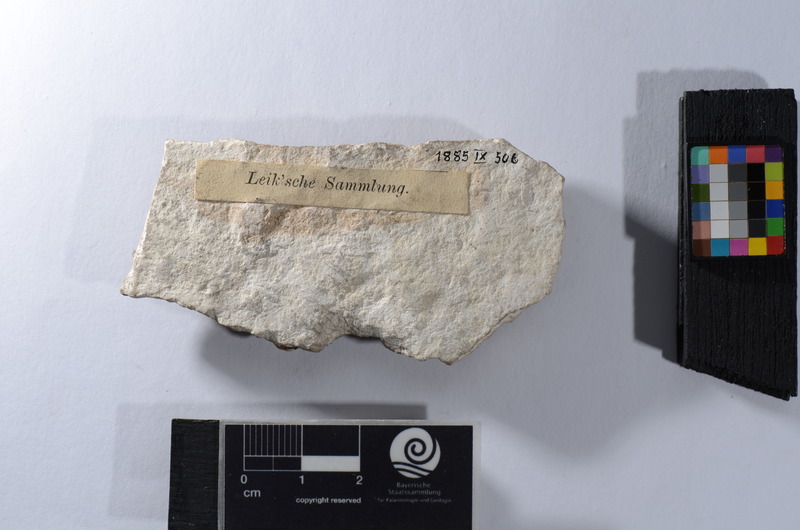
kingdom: Animalia
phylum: Chordata
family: Aspidorhynchidae
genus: Aspidorhynchus
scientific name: Aspidorhynchus
